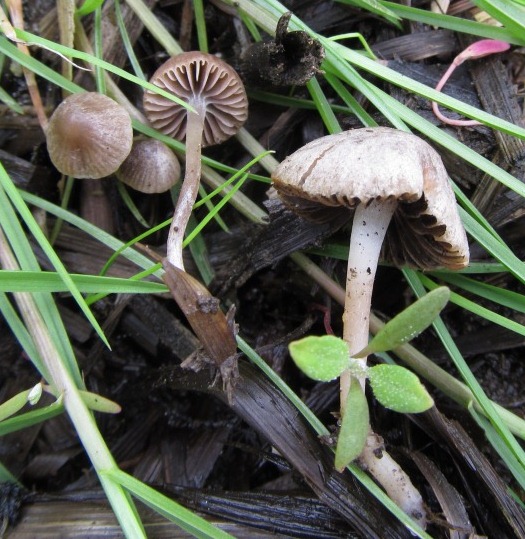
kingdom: Fungi
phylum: Basidiomycota
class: Agaricomycetes
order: Agaricales
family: Psathyrellaceae
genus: Psathyrella
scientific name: Psathyrella potteri
